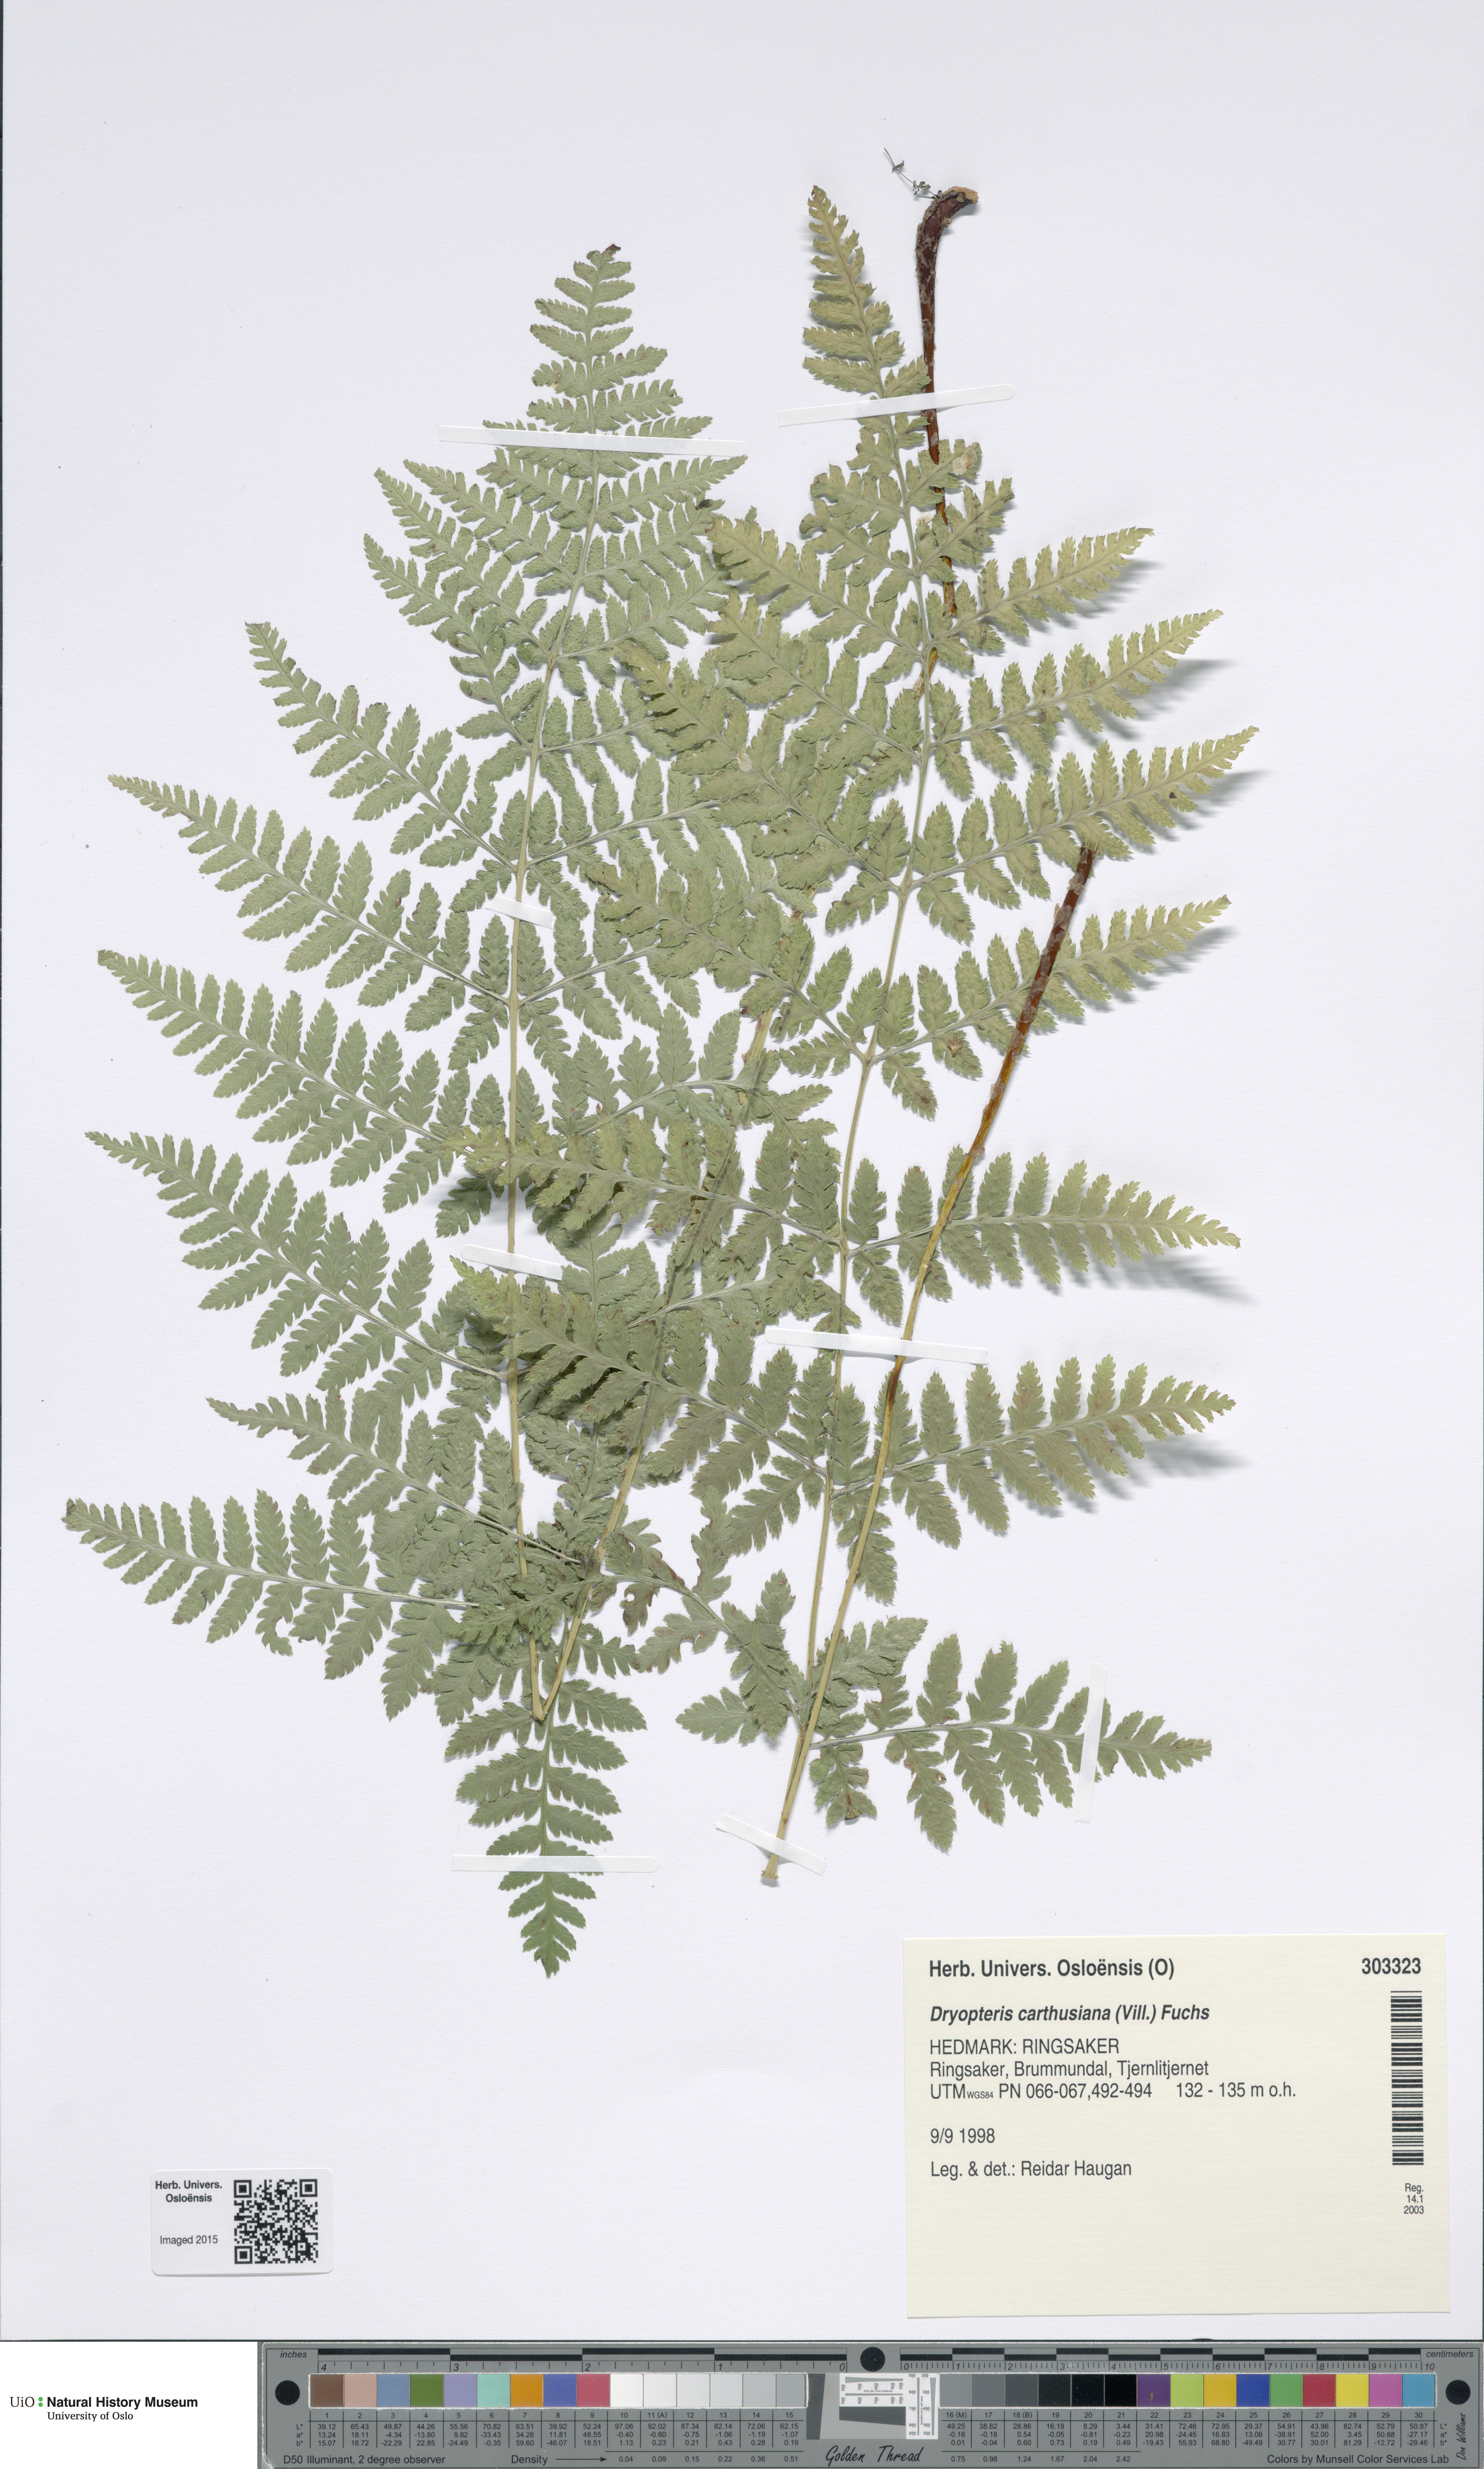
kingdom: Plantae
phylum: Tracheophyta
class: Polypodiopsida
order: Polypodiales
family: Dryopteridaceae
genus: Dryopteris
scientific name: Dryopteris carthusiana
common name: Narrow buckler-fern
